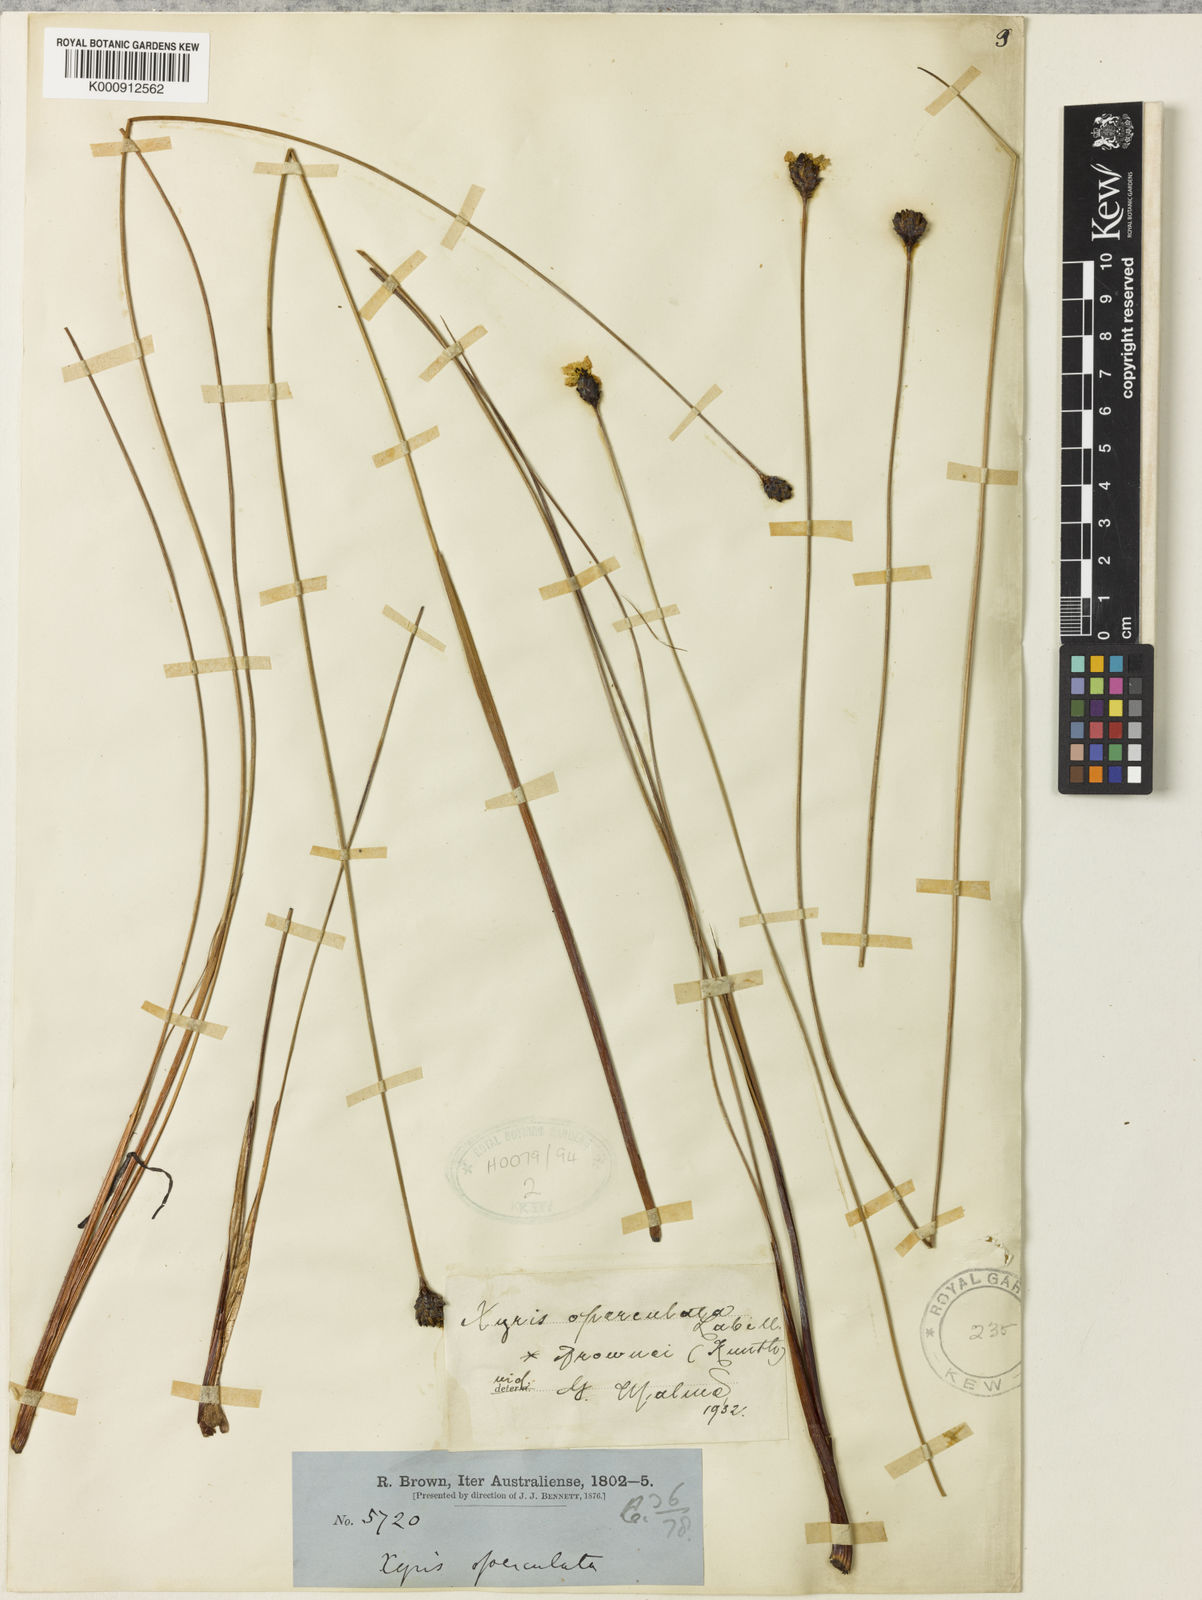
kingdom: Plantae
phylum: Tracheophyta
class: Liliopsida
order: Poales
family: Xyridaceae
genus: Xyris
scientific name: Xyris operculata
